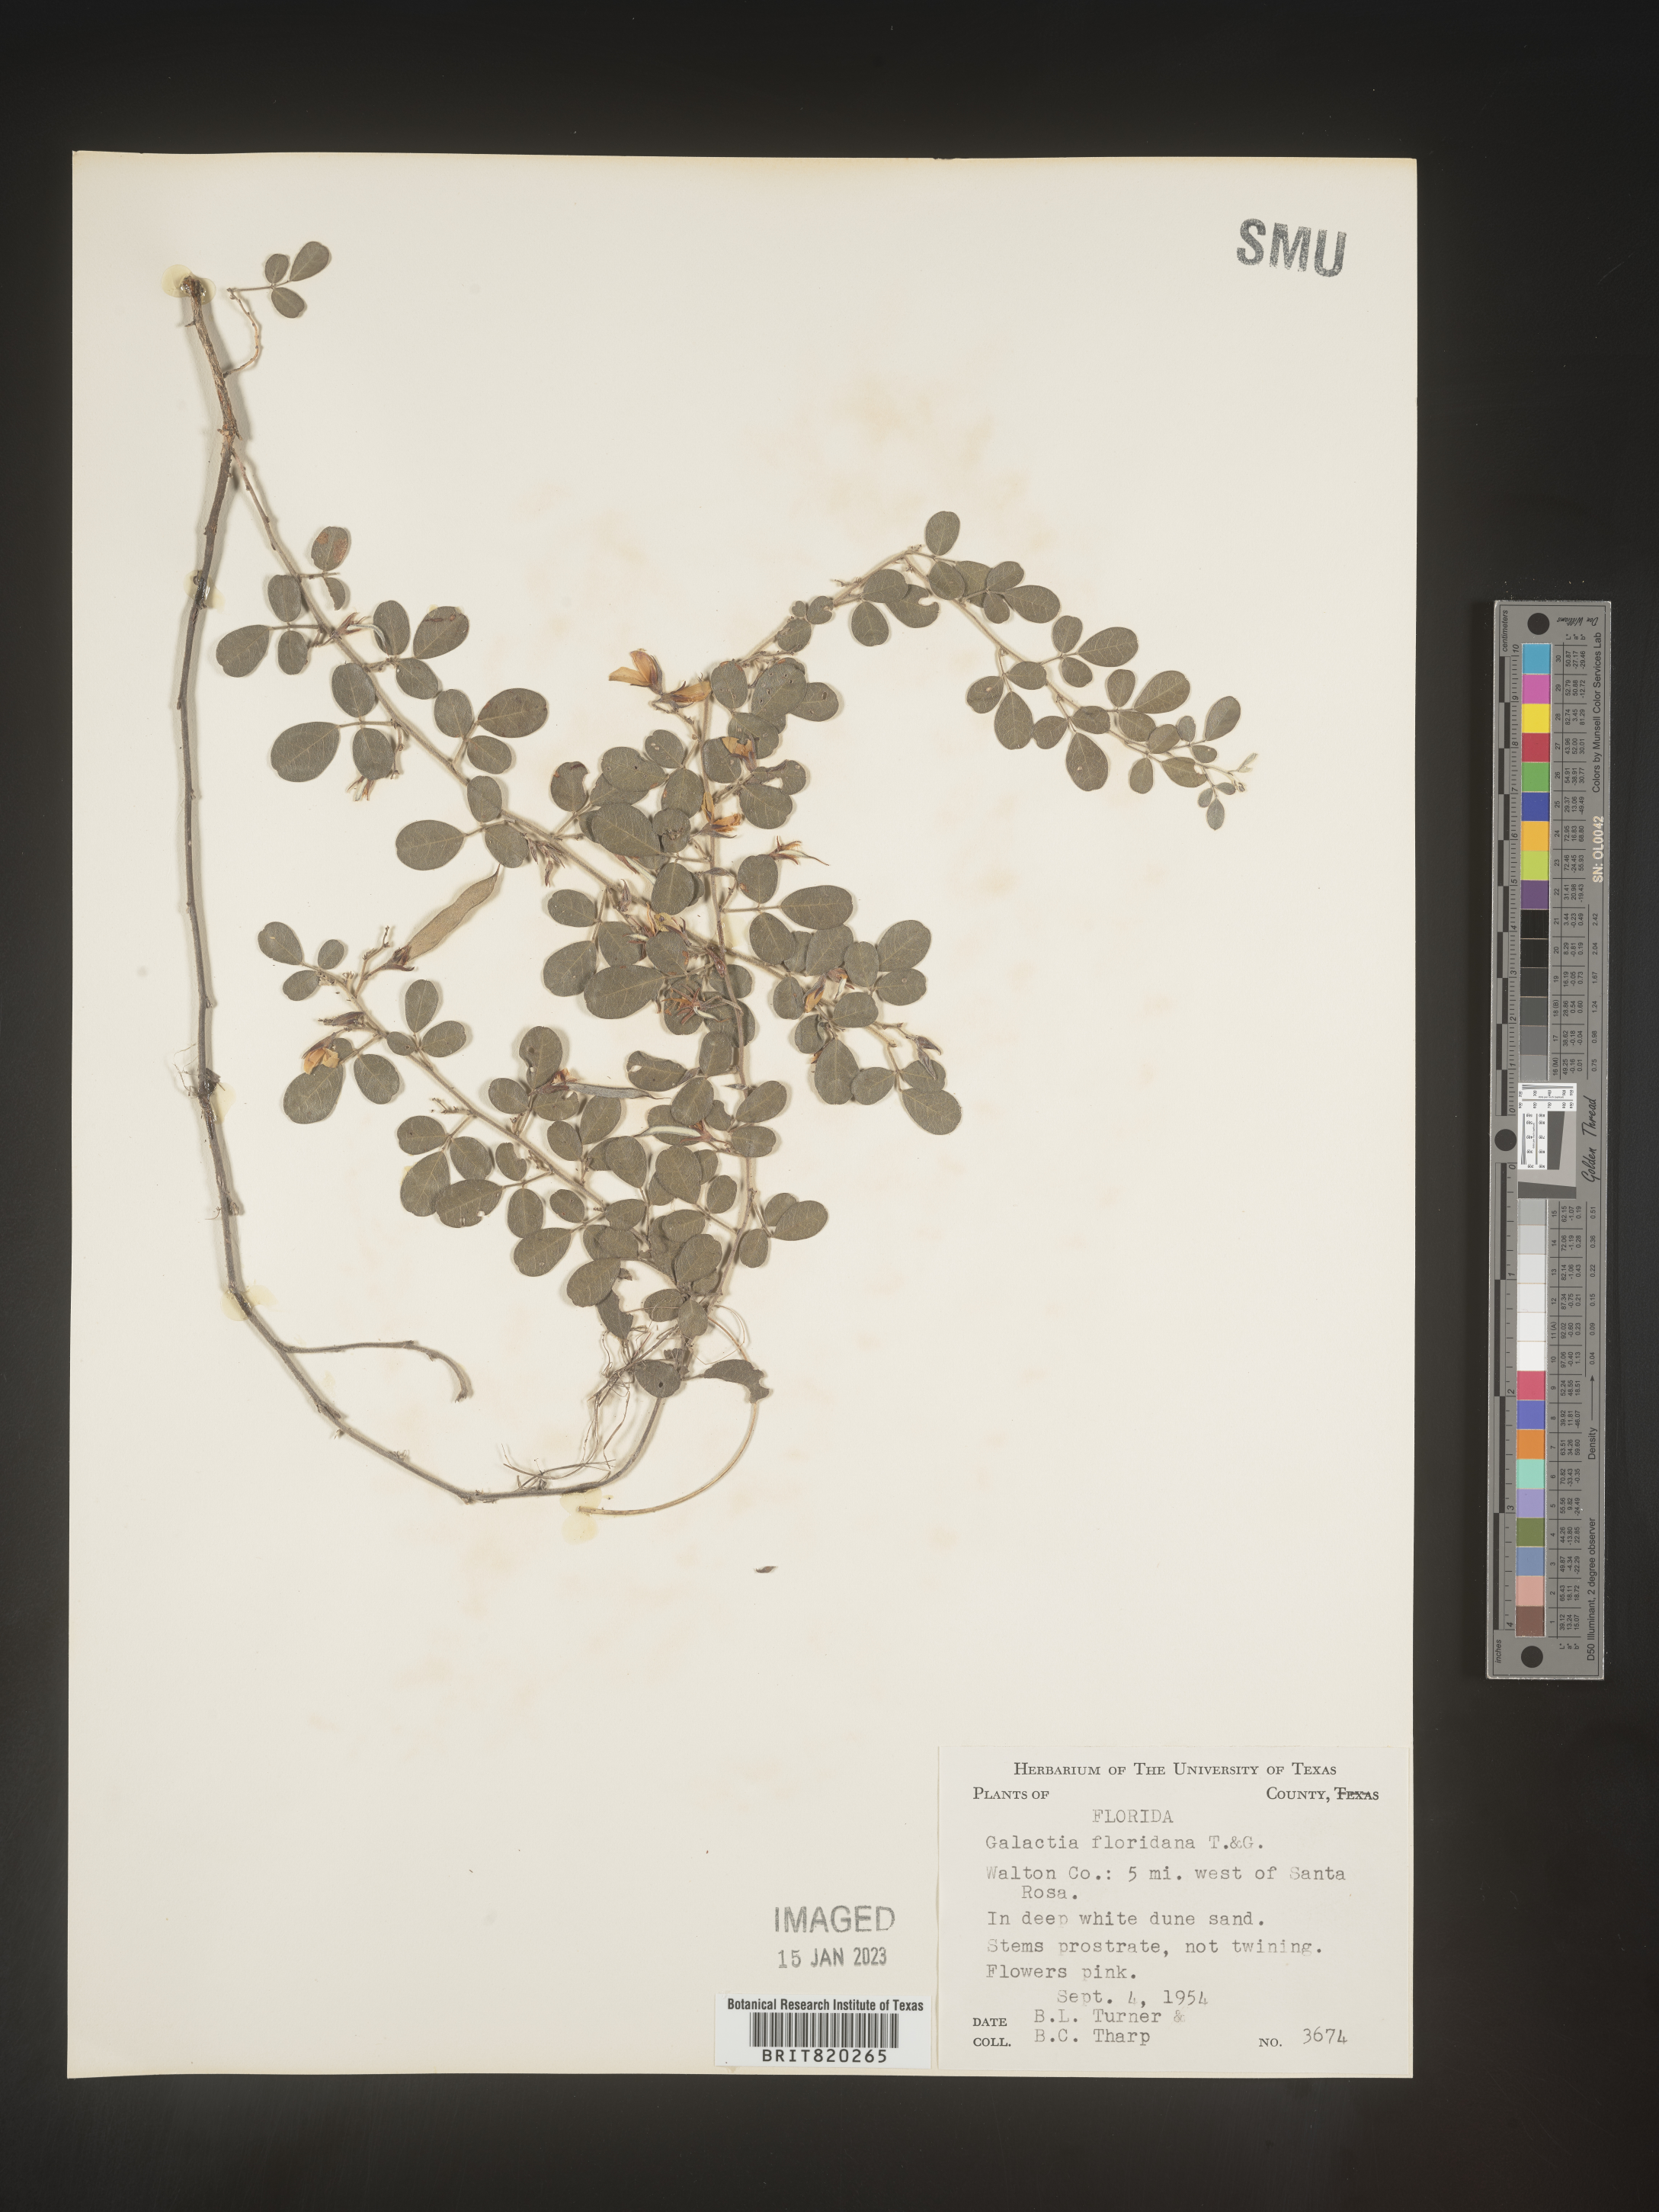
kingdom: Plantae
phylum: Tracheophyta
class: Magnoliopsida
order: Fabales
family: Fabaceae
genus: Galactia
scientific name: Galactia microphylla
